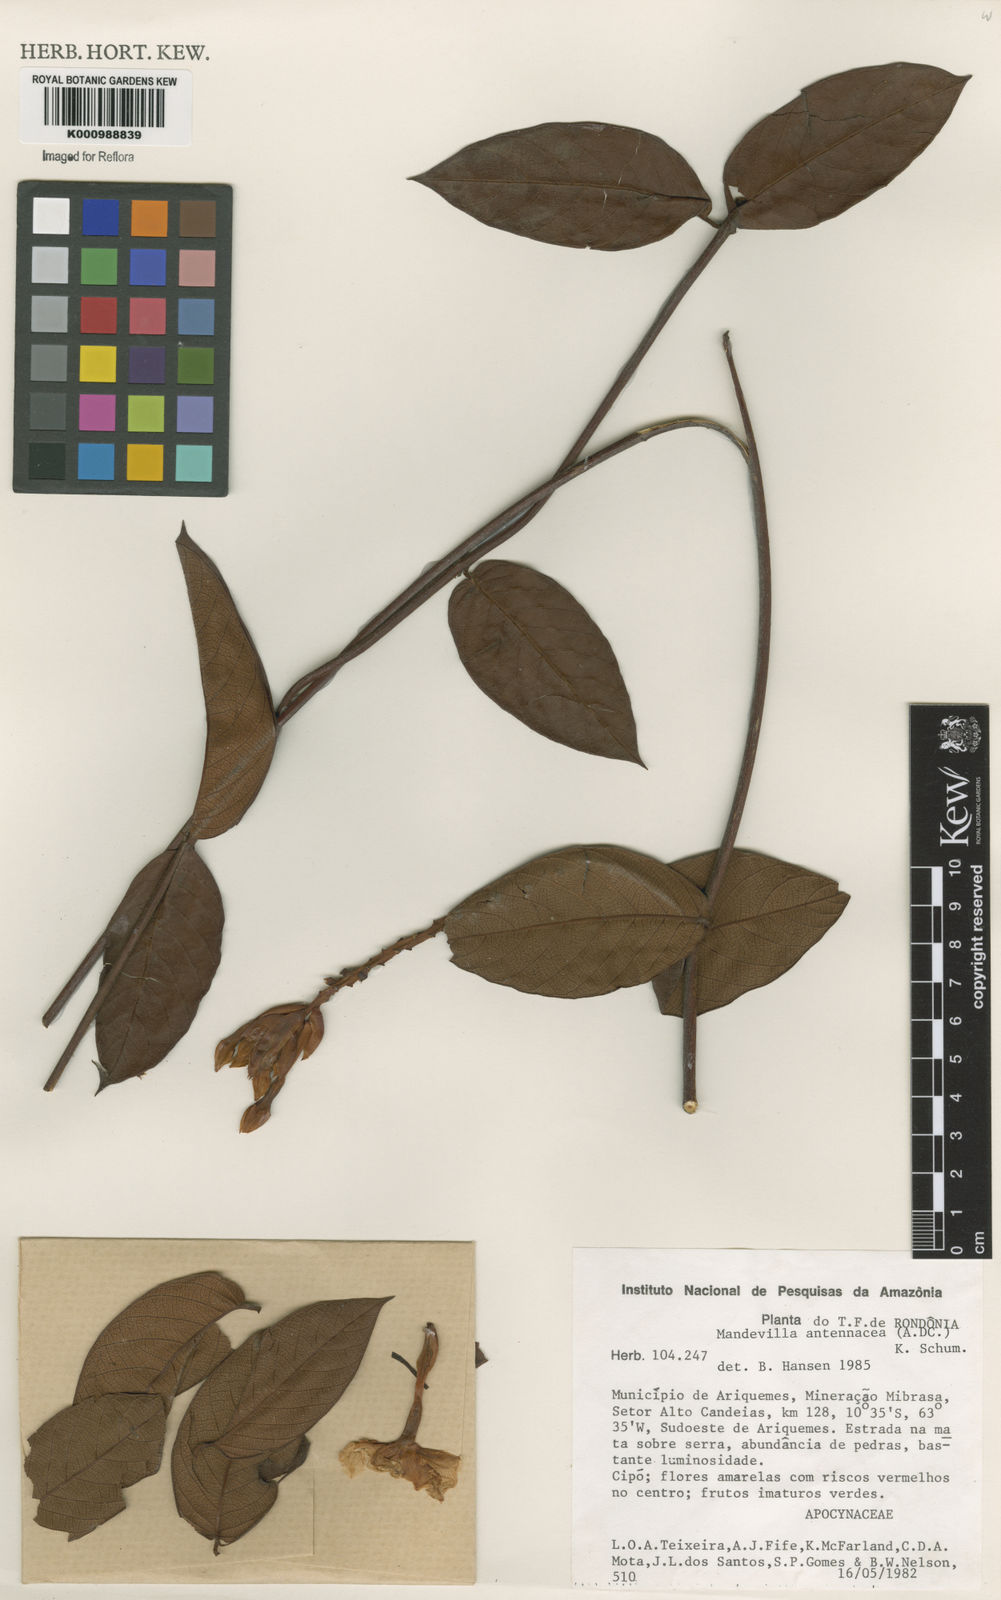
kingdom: Plantae
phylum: Tracheophyta
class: Magnoliopsida
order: Gentianales
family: Apocynaceae
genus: Mandevilla
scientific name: Mandevilla rugellosa
